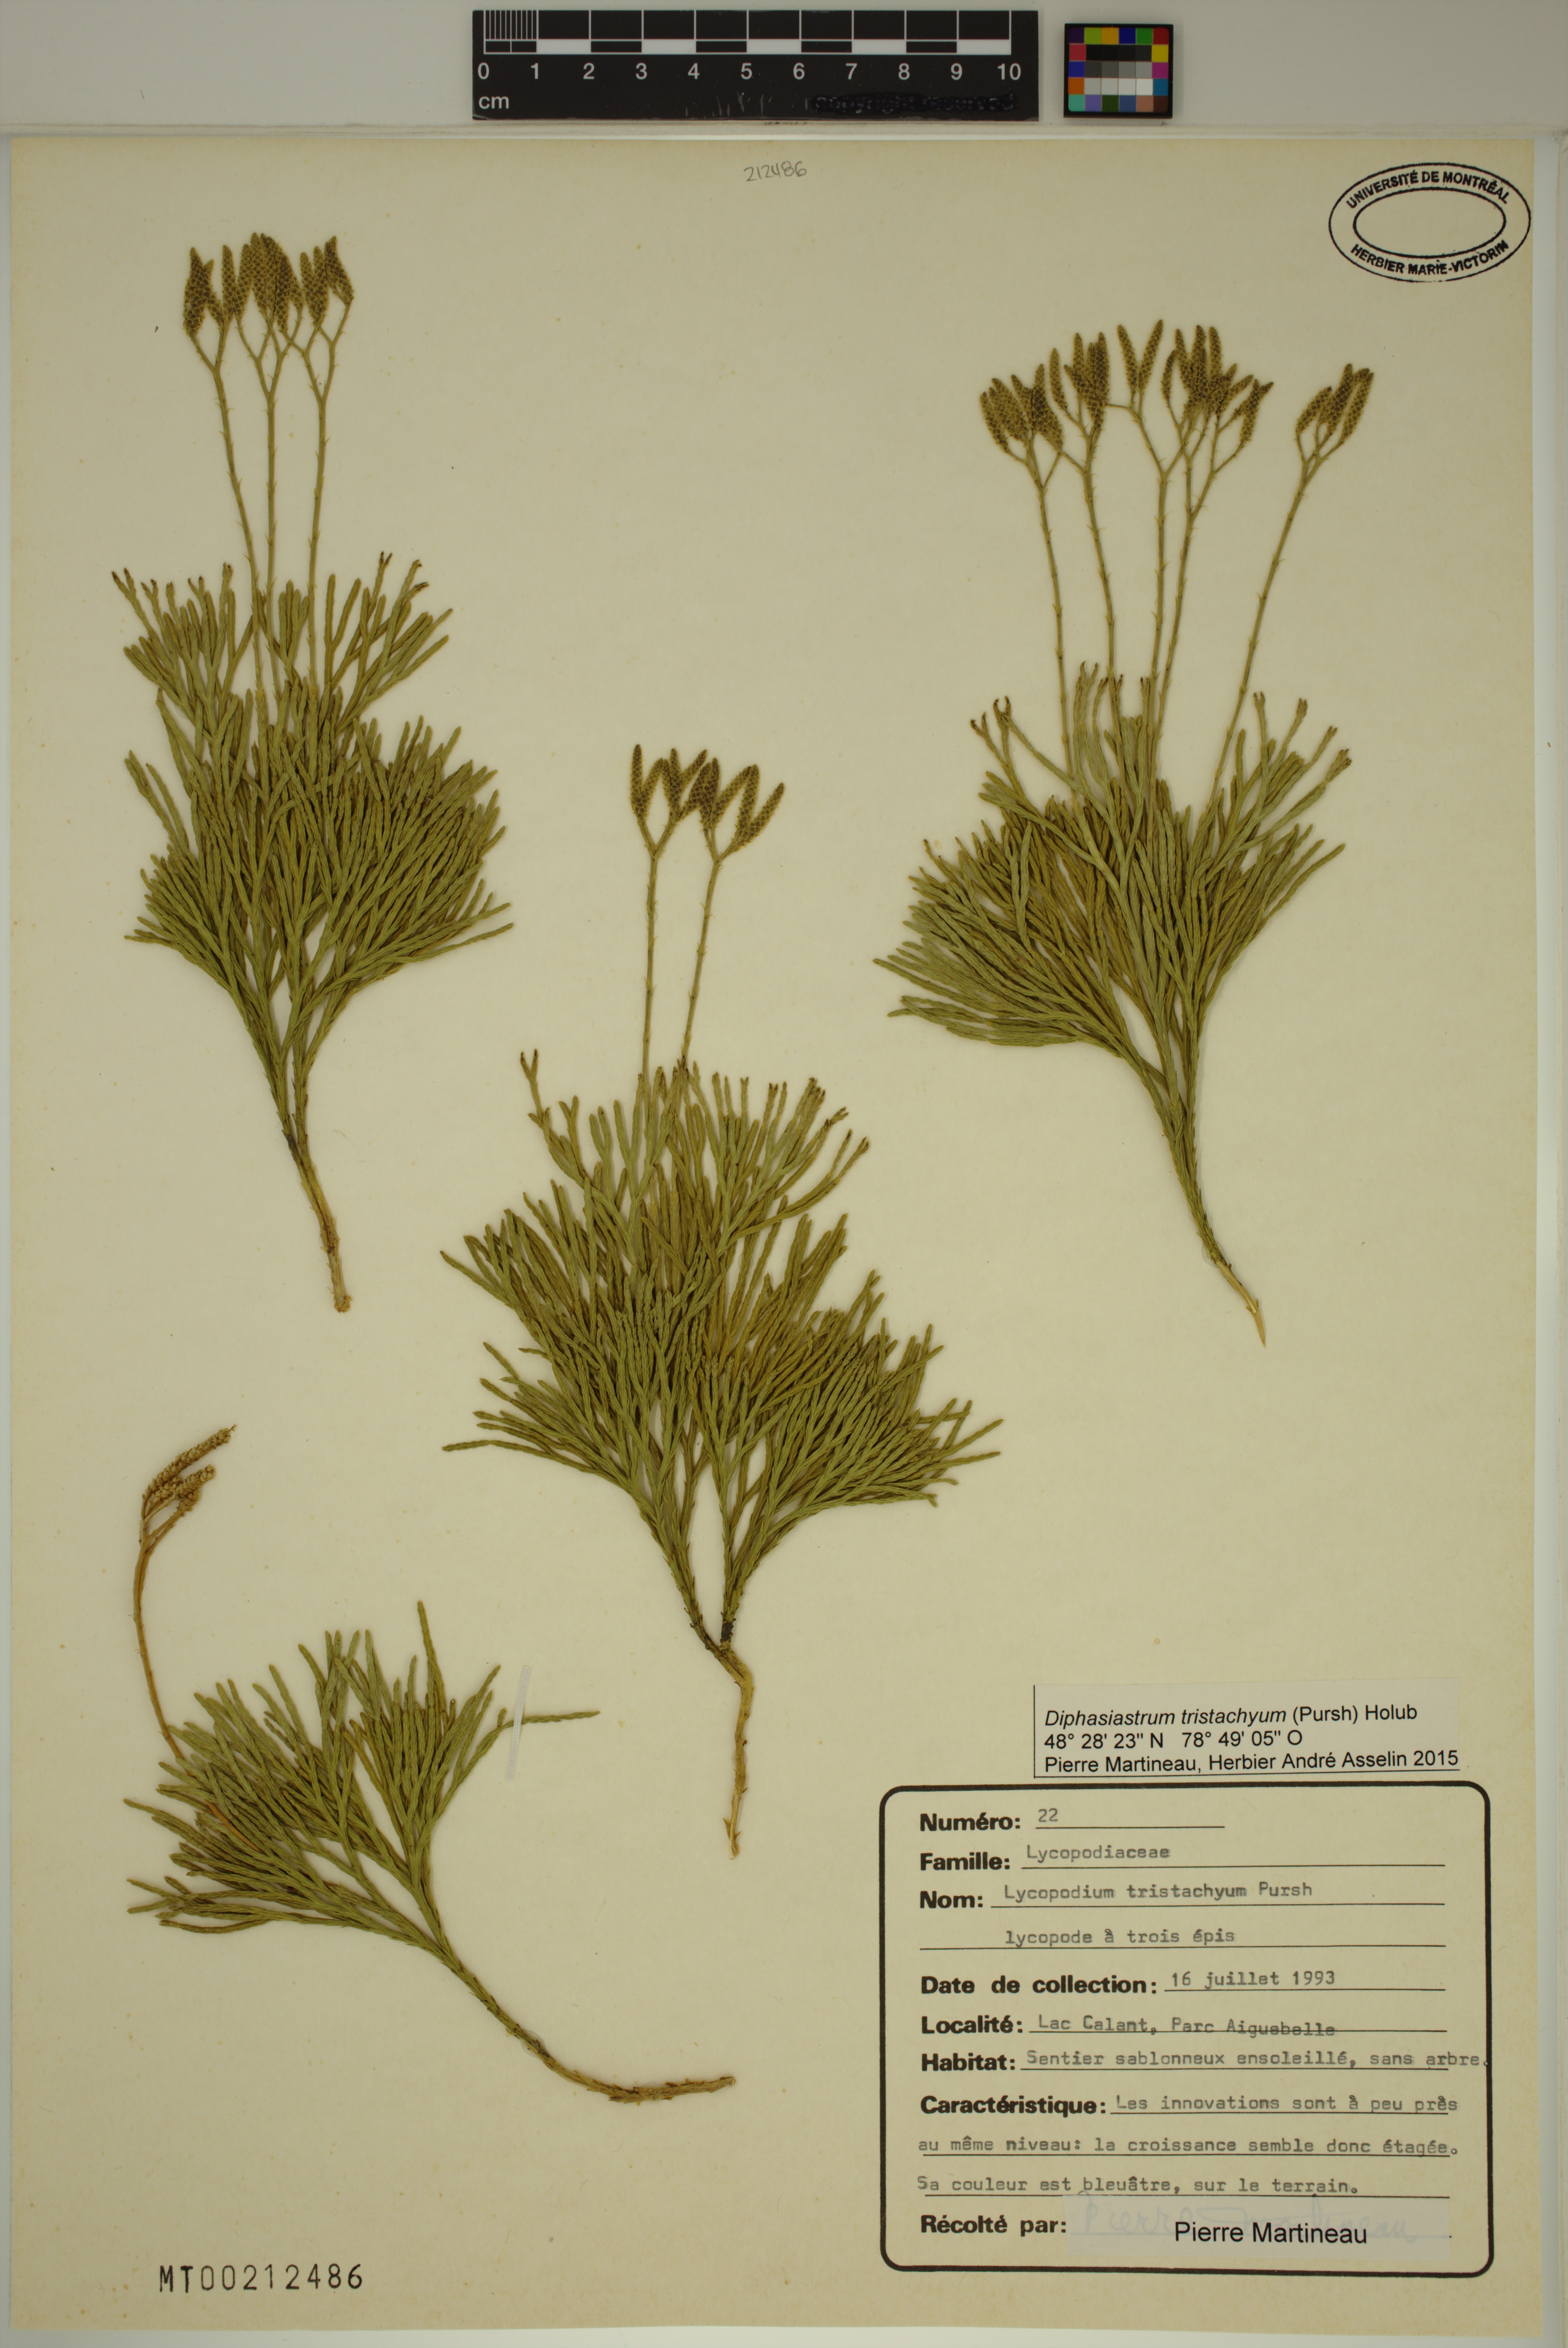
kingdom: Plantae
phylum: Tracheophyta
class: Lycopodiopsida
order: Lycopodiales
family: Lycopodiaceae
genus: Diphasiastrum
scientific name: Diphasiastrum tristachyum
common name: Blue ground-cedar
